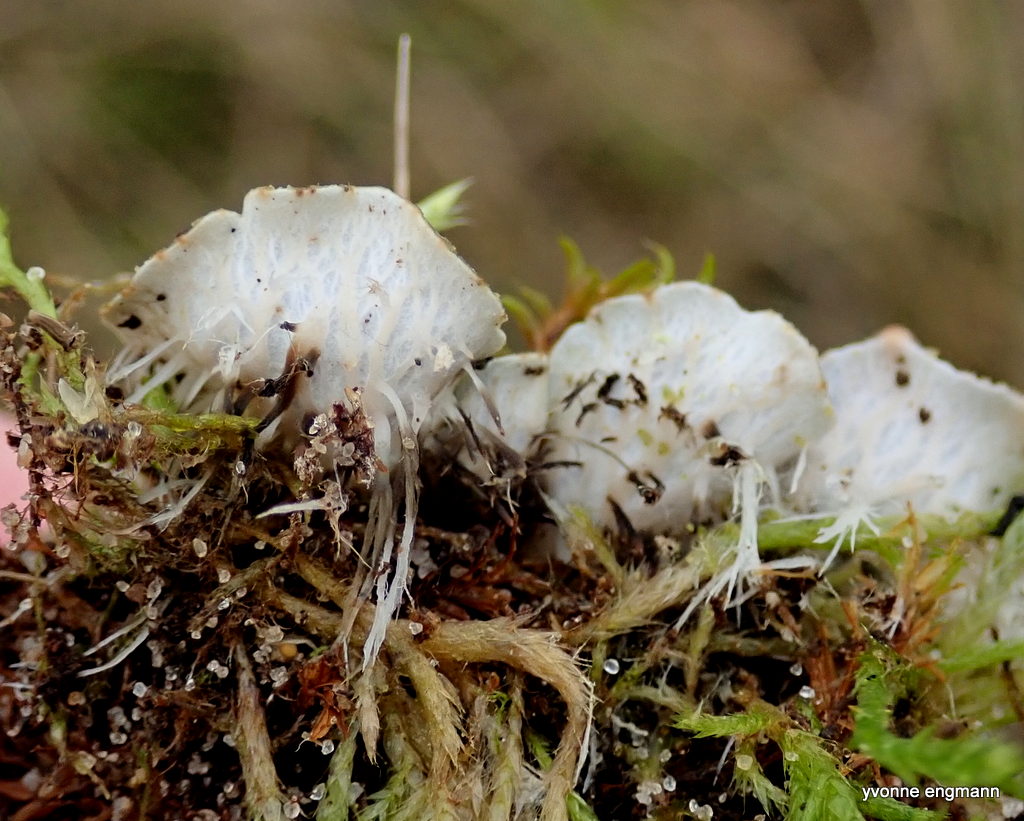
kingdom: Fungi
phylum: Ascomycota
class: Lecanoromycetes
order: Peltigerales
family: Peltigeraceae
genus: Peltigera
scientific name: Peltigera didactyla
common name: liden skjoldlav
